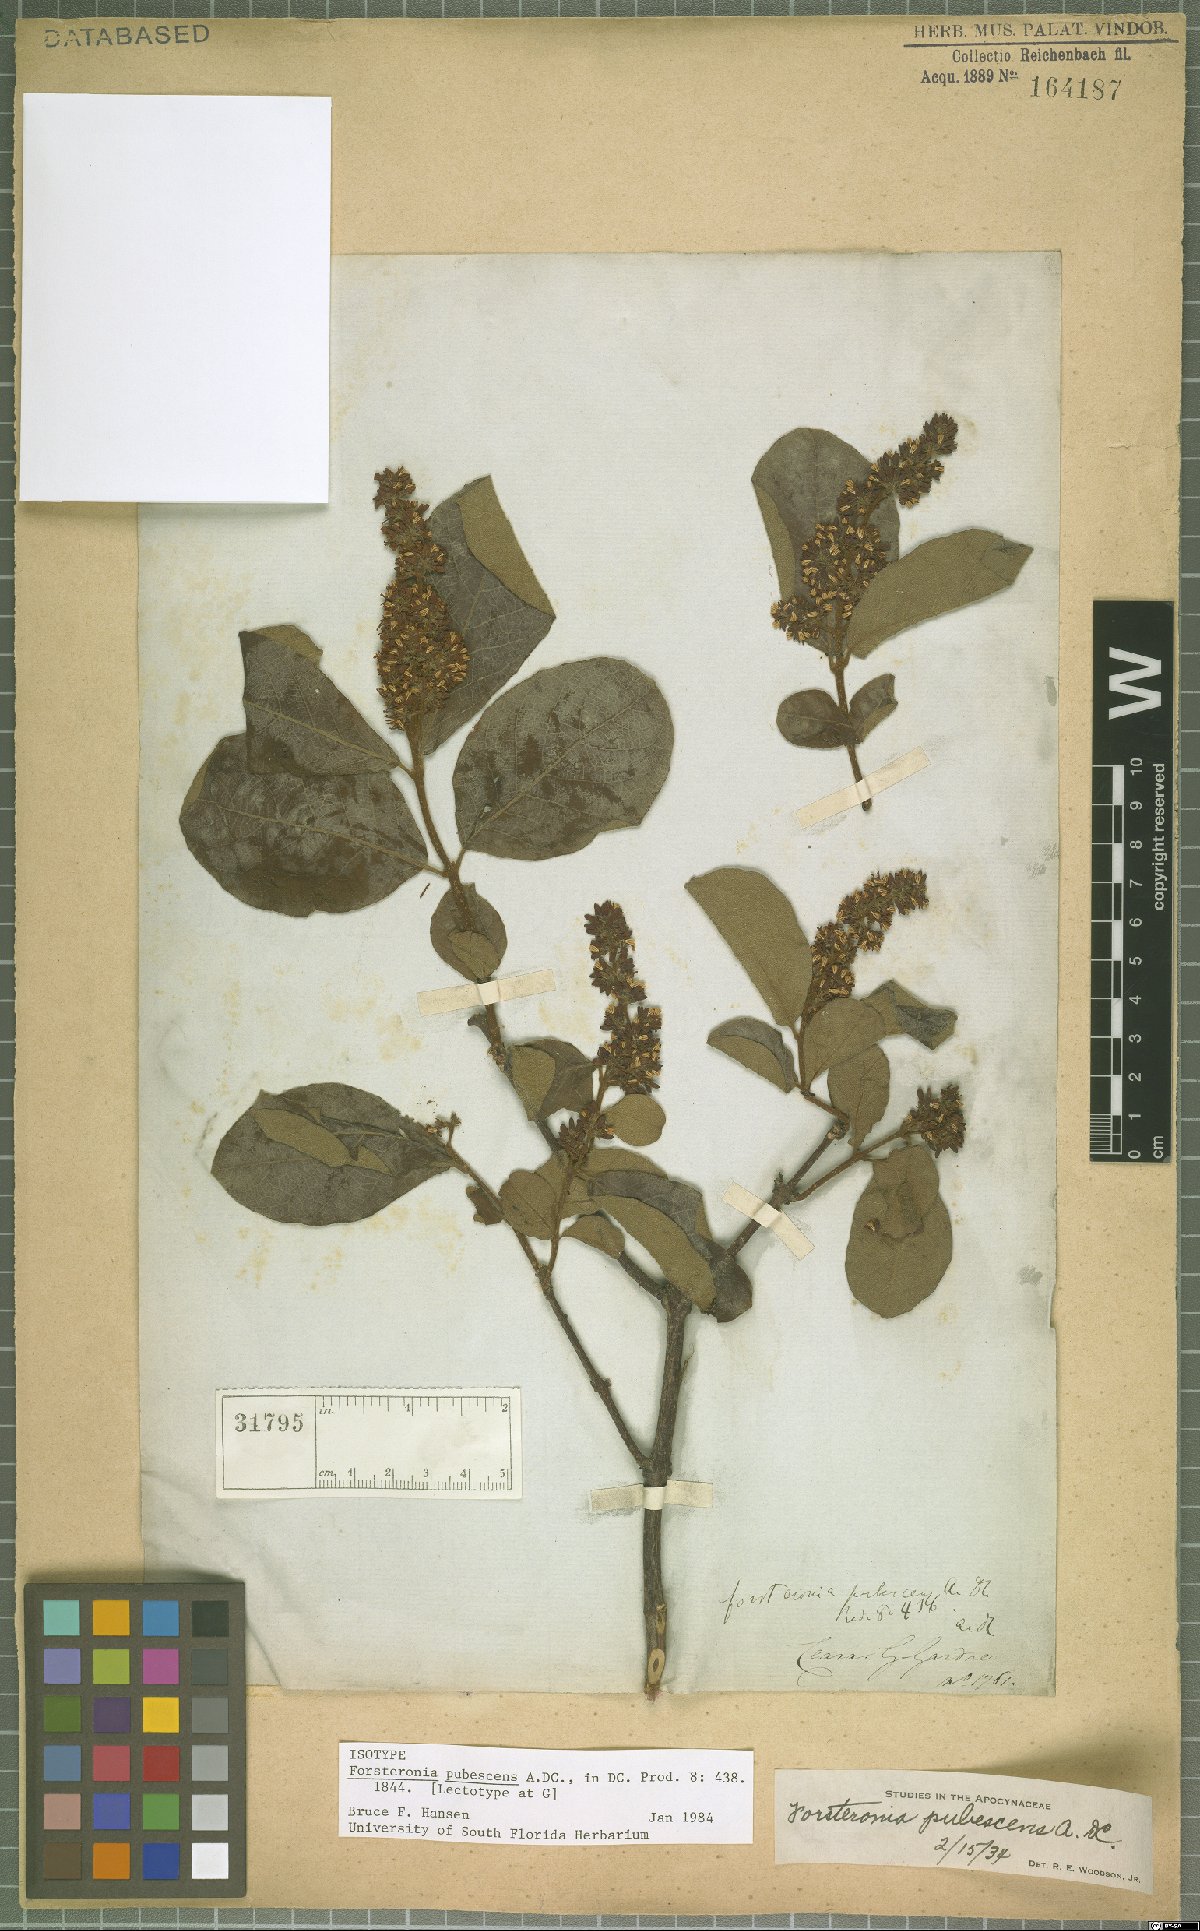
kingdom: Plantae
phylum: Tracheophyta
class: Magnoliopsida
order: Gentianales
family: Apocynaceae
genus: Forsteronia
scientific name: Forsteronia pubescens
